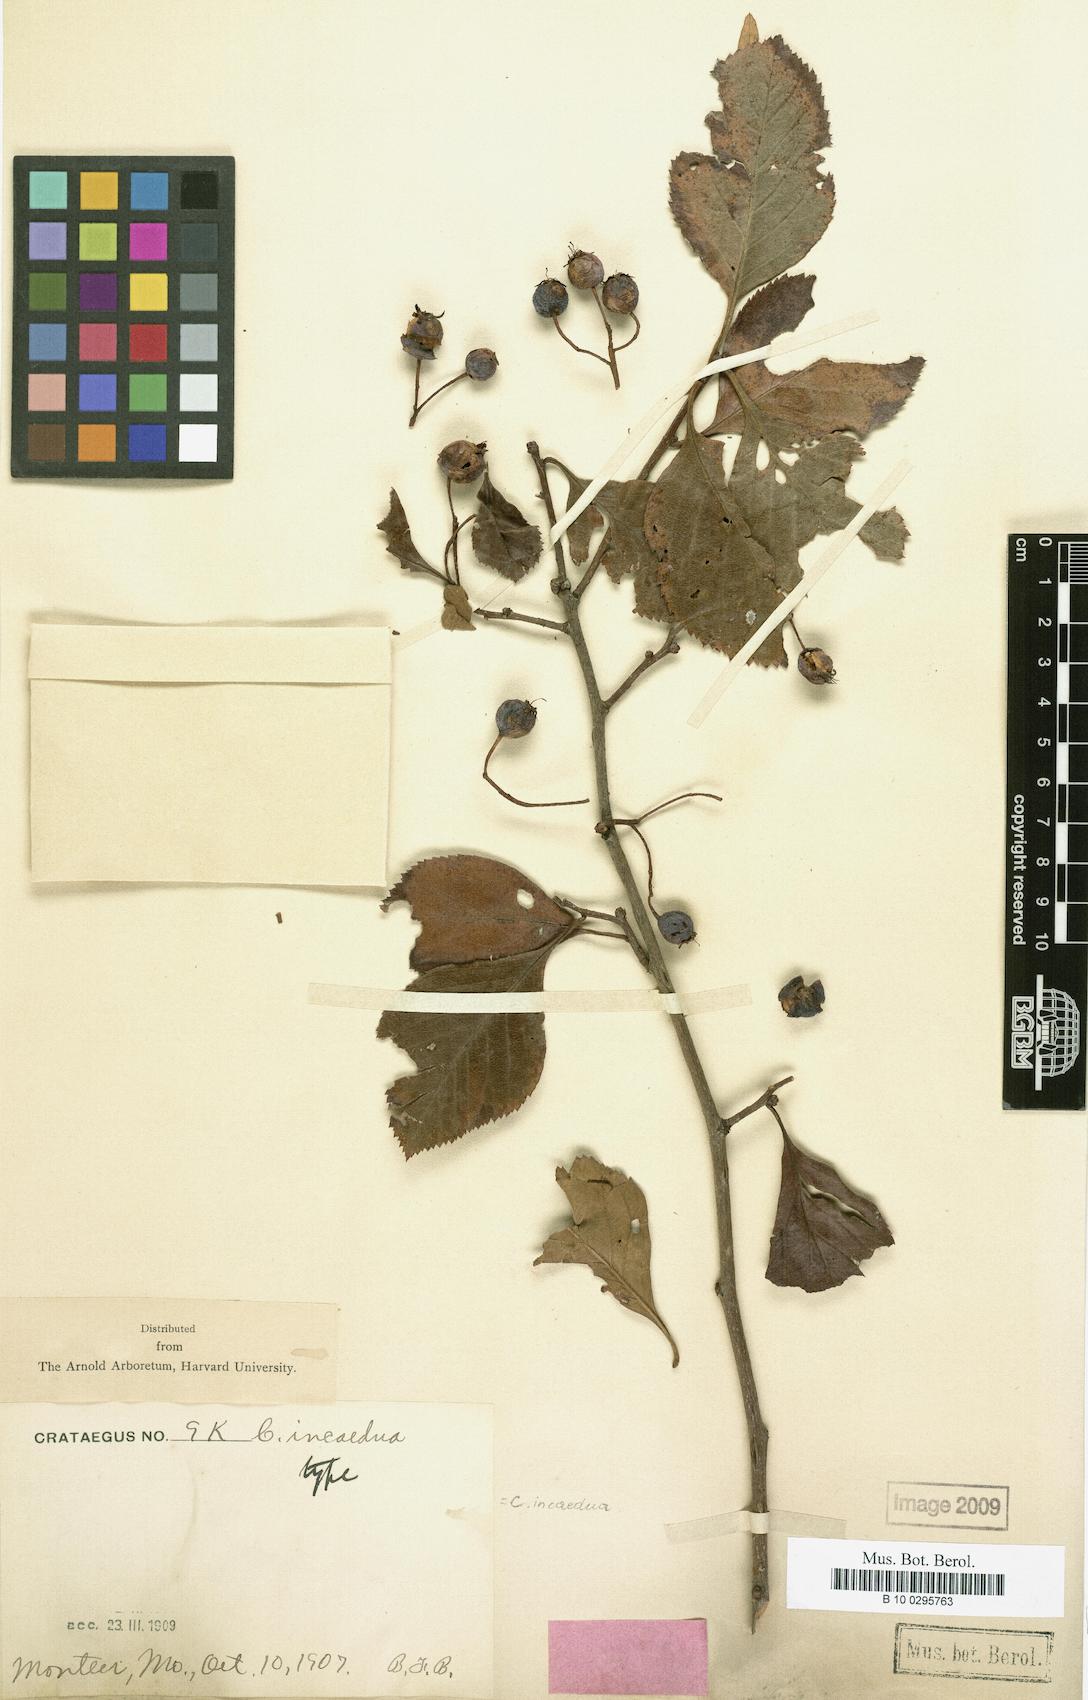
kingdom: Plantae
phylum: Tracheophyta
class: Magnoliopsida
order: Rosales
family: Rosaceae
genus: Crataegus
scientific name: Crataegus incaedua
